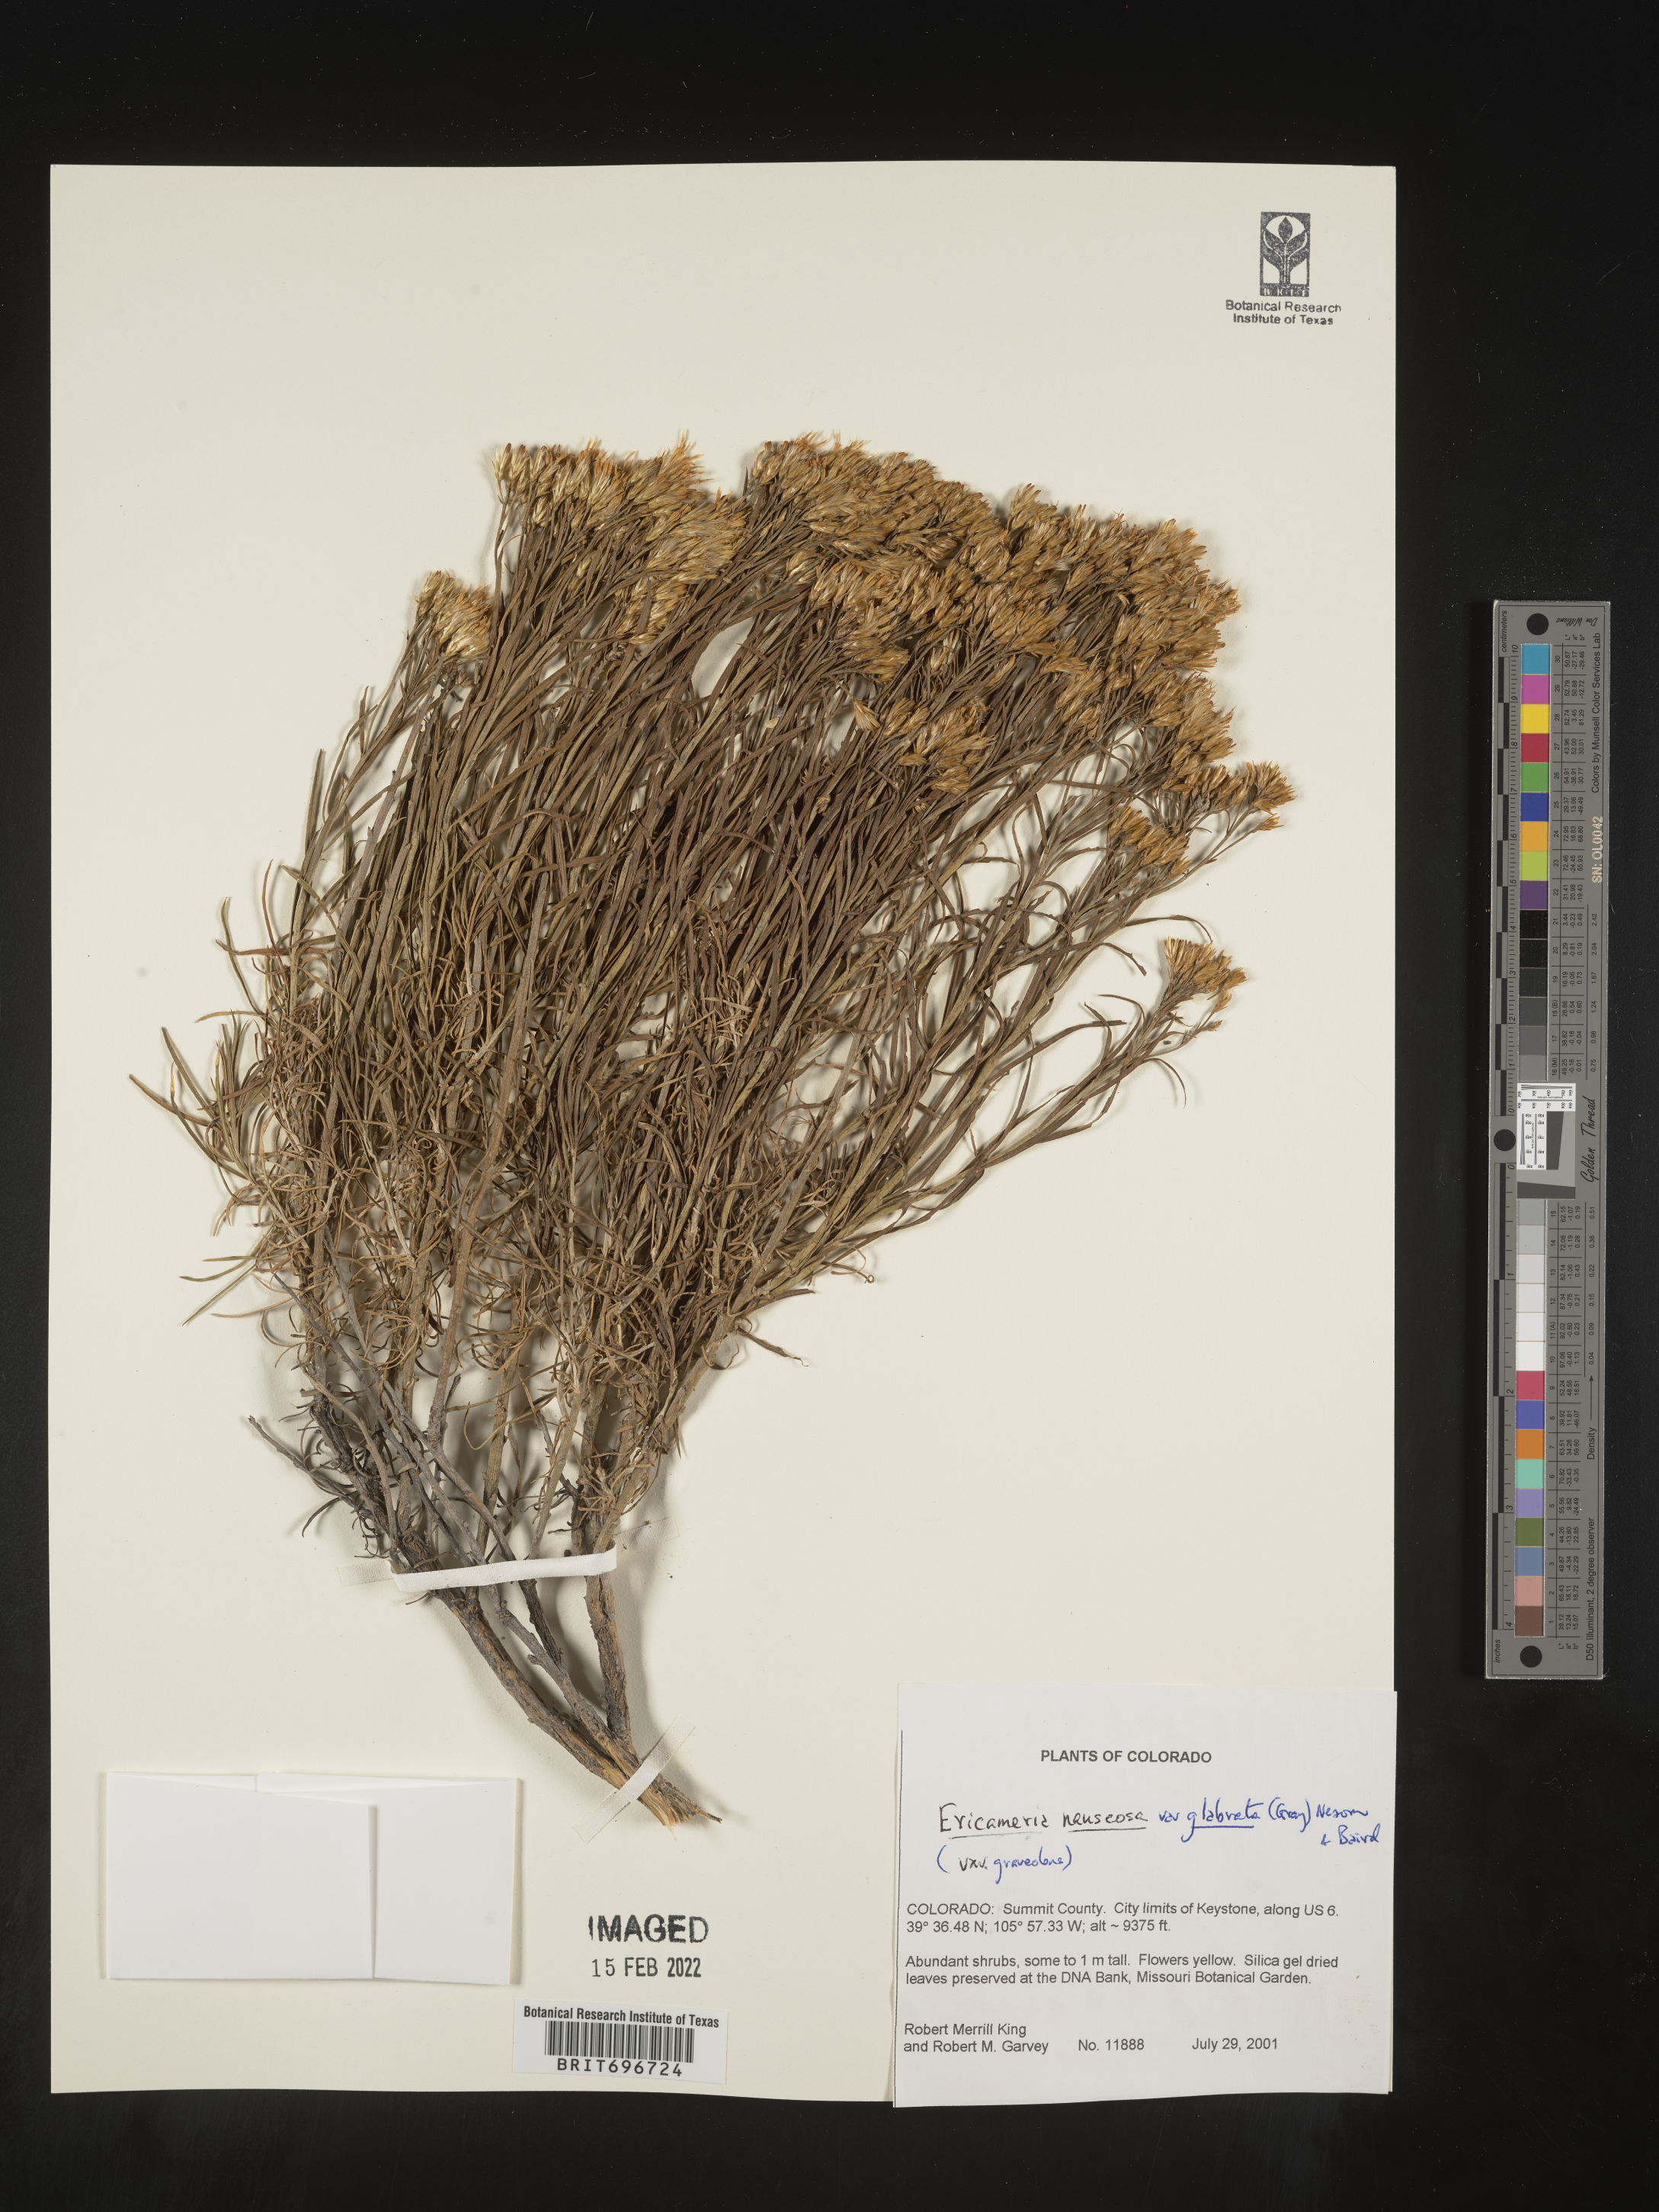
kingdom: Plantae
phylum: Tracheophyta
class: Magnoliopsida
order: Asterales
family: Asteraceae
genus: Ericameria
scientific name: Ericameria nauseosa
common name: Rubber rabbitbrush
